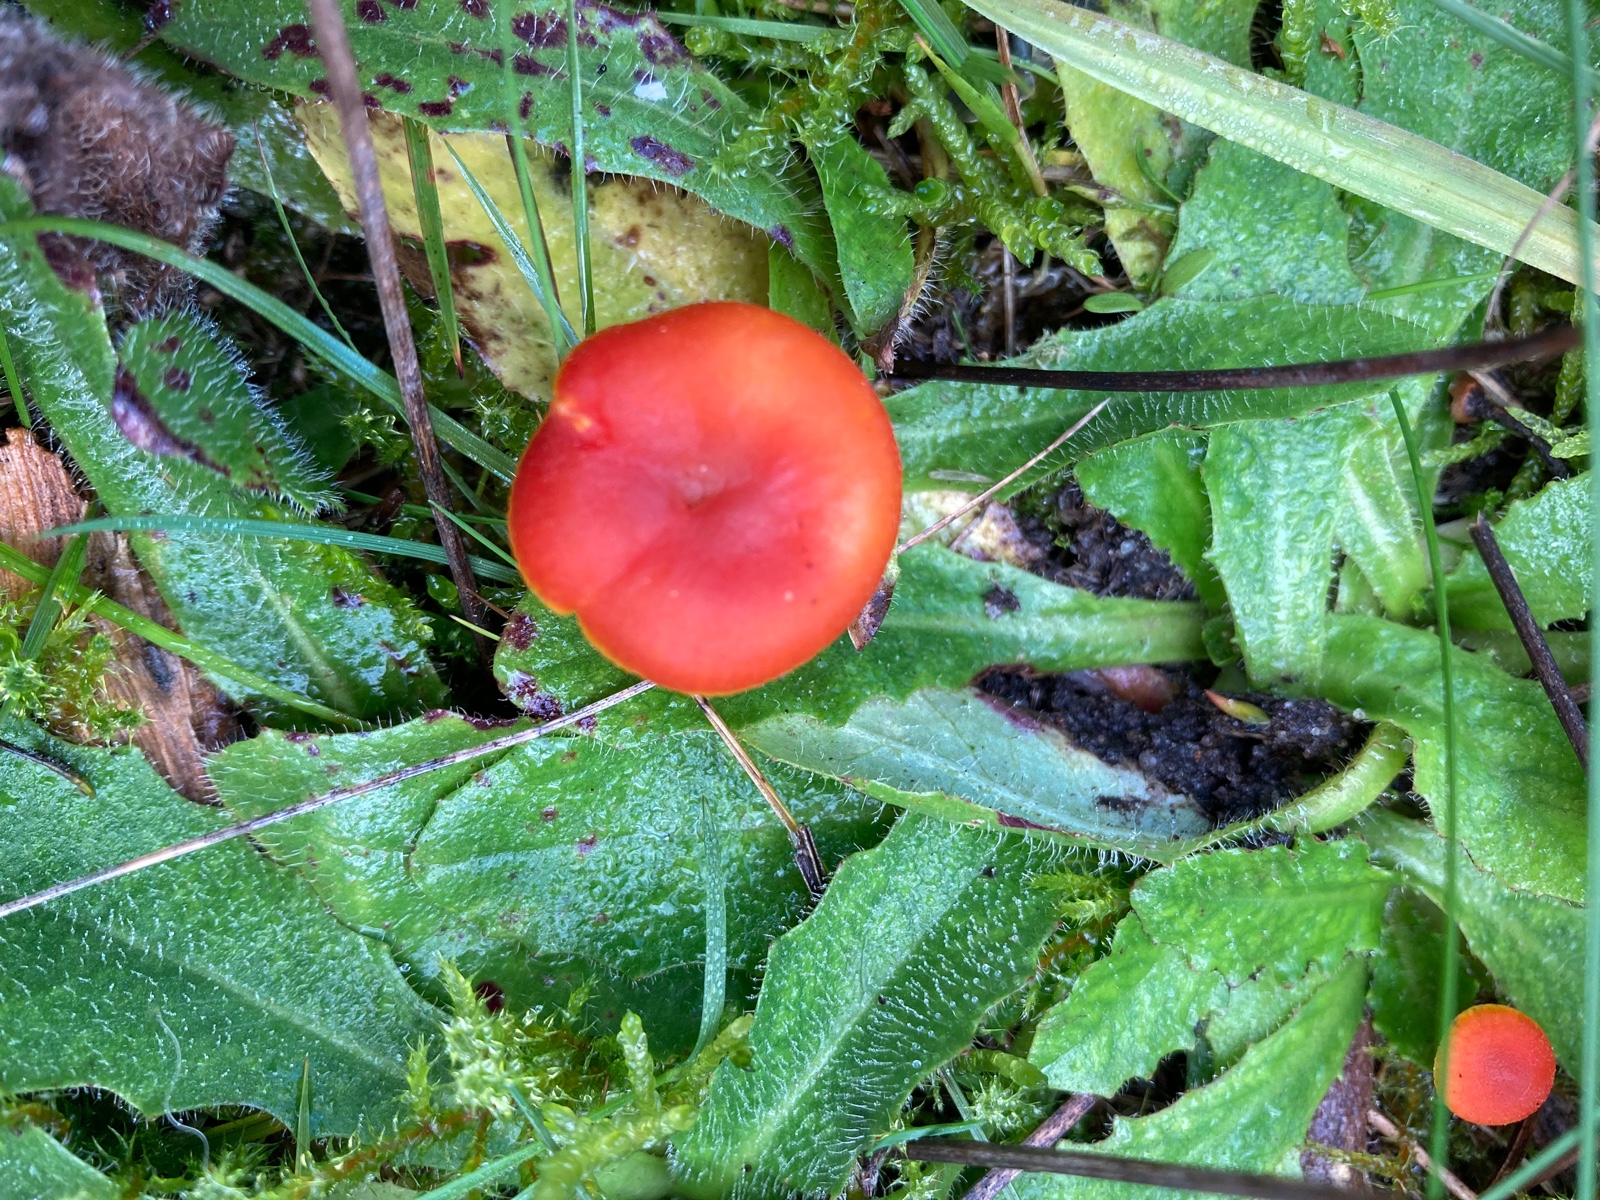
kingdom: Fungi
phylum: Basidiomycota
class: Agaricomycetes
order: Agaricales
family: Hygrophoraceae
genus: Hygrocybe
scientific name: Hygrocybe miniata
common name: mønje-vokshat
